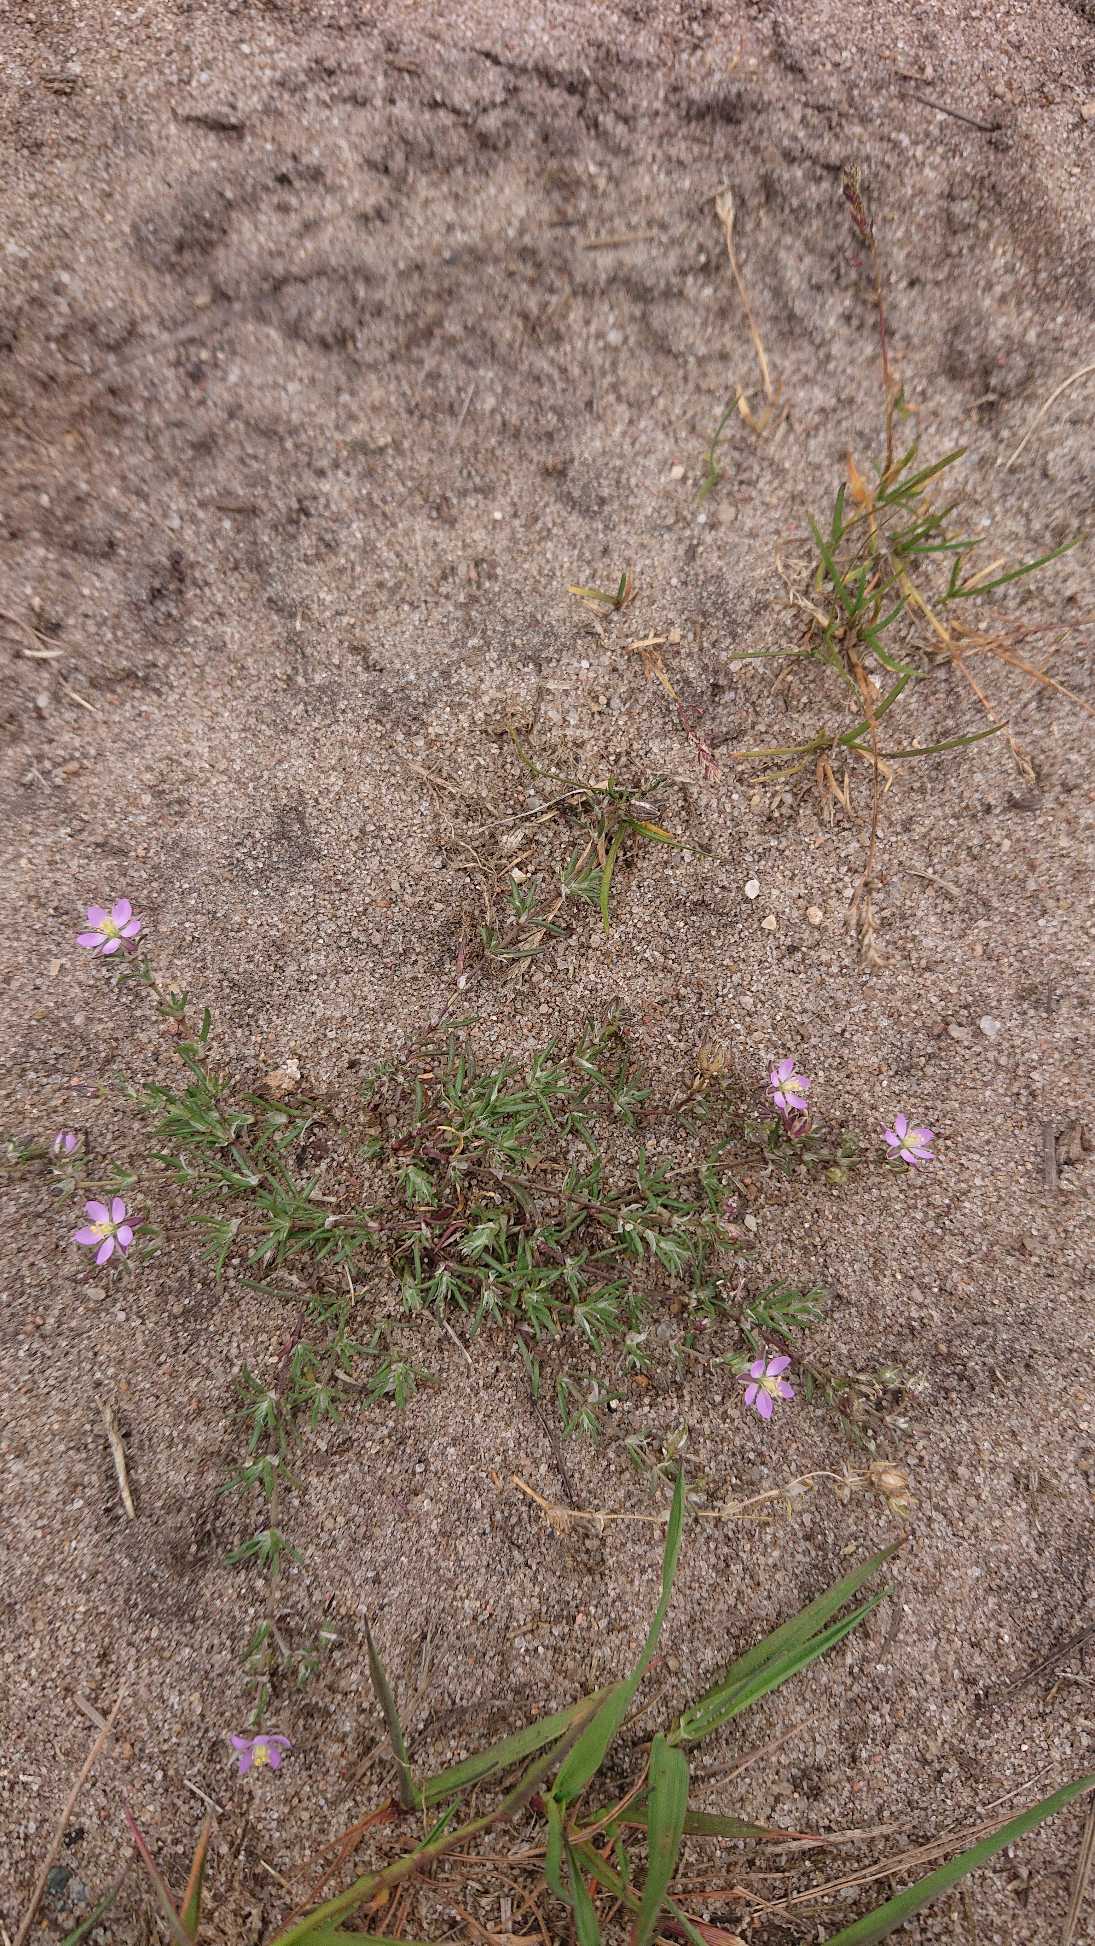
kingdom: Plantae
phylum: Tracheophyta
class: Magnoliopsida
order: Caryophyllales
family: Caryophyllaceae
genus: Spergularia
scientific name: Spergularia rubra
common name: Mark-hindeknæ
